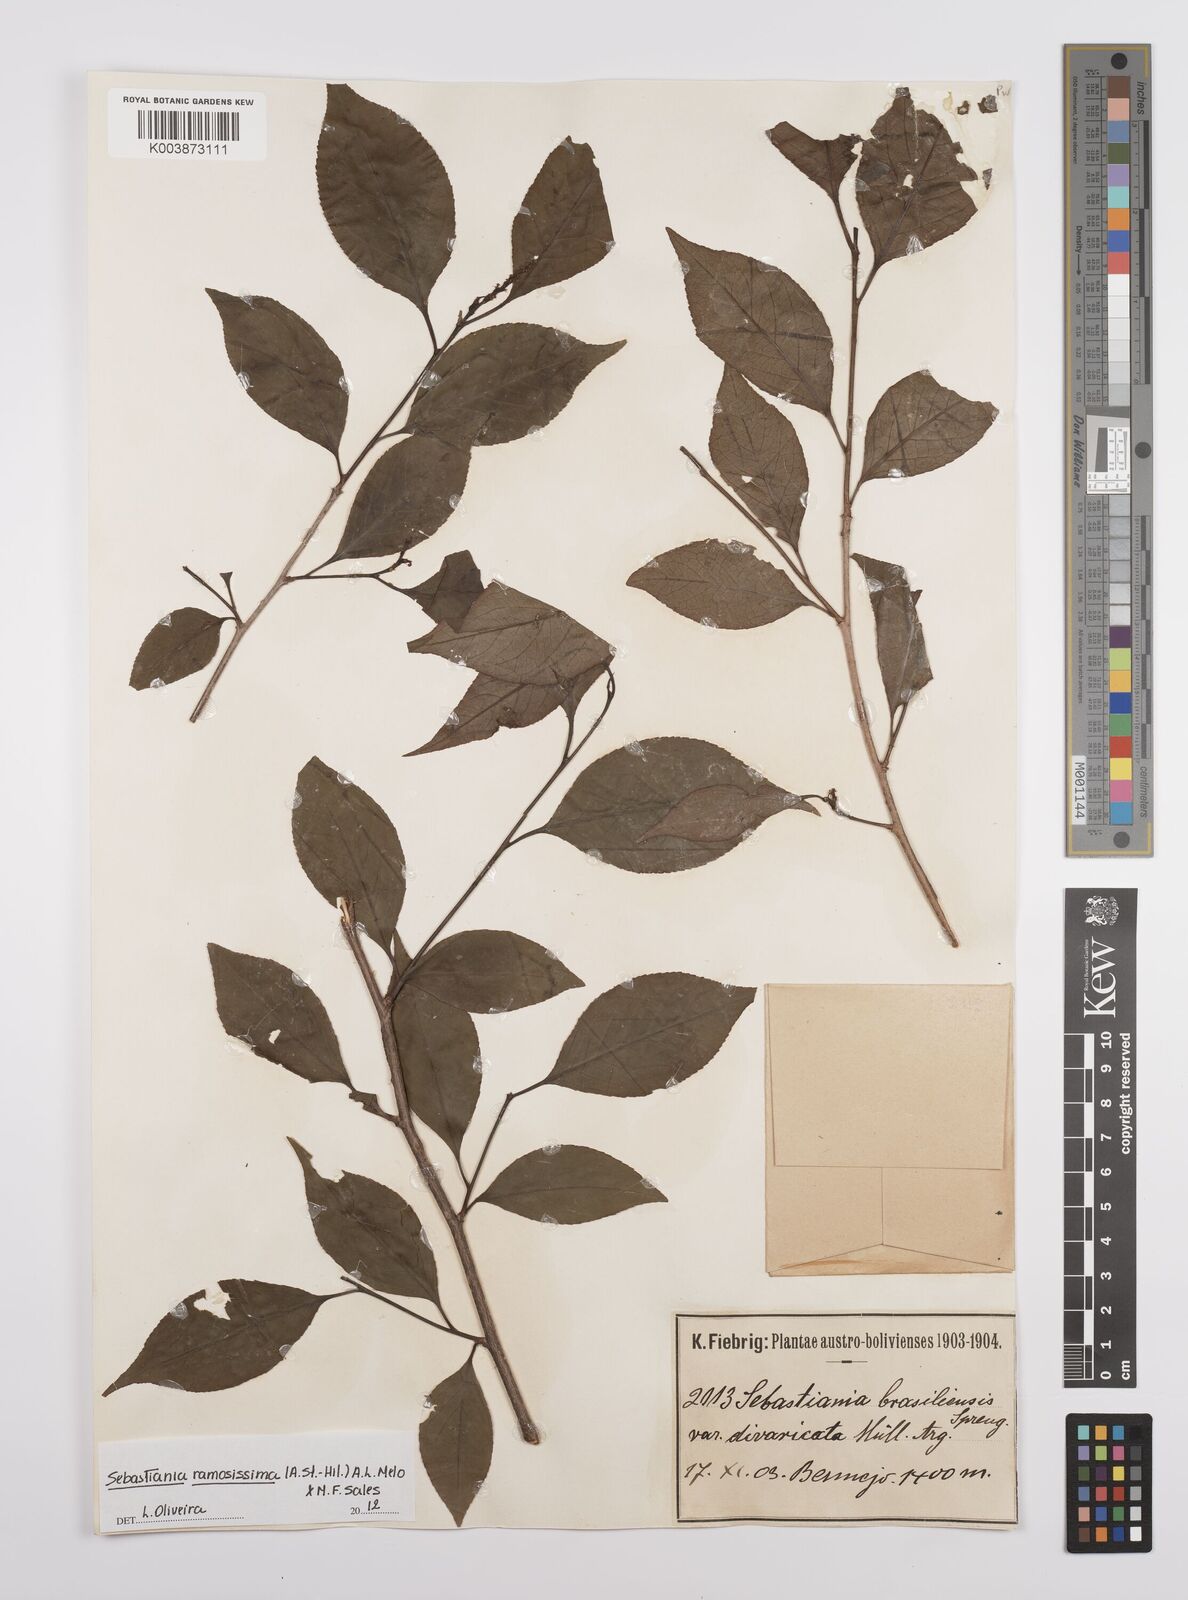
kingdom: Plantae
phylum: Tracheophyta
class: Magnoliopsida
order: Malpighiales
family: Euphorbiaceae
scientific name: Euphorbiaceae
